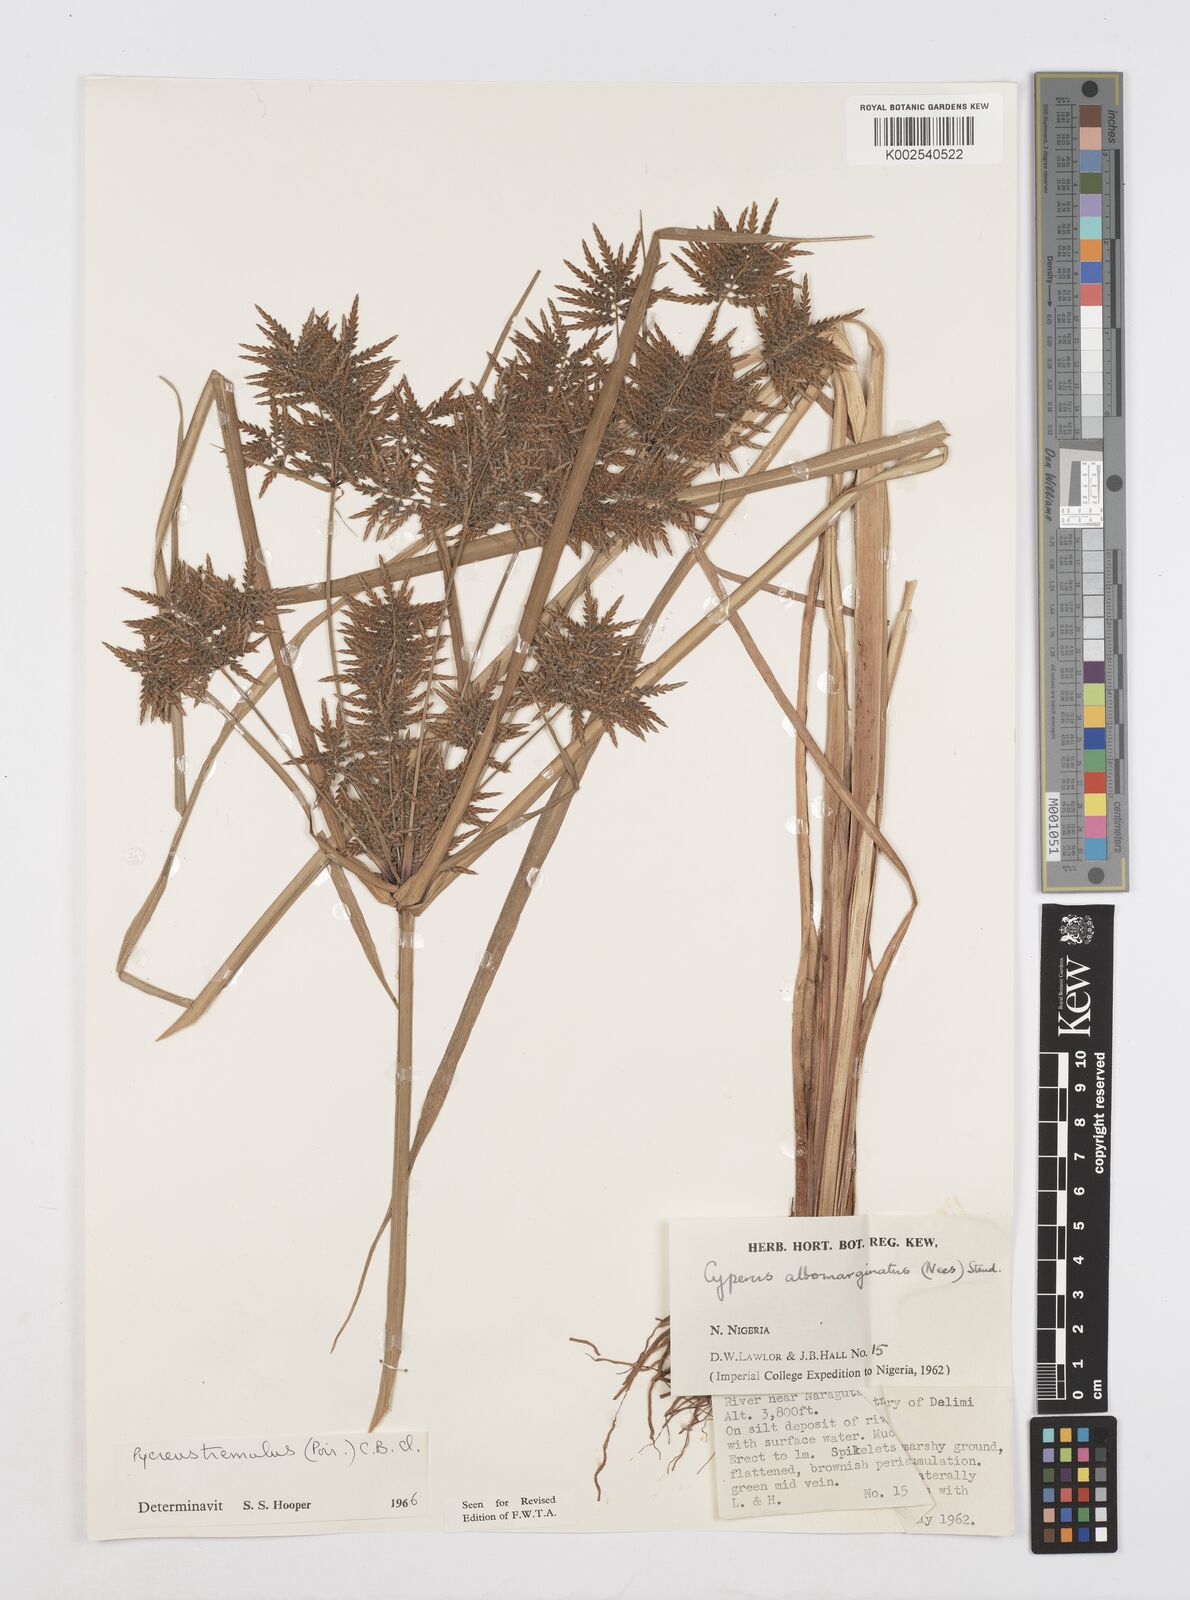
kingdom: Plantae
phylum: Tracheophyta
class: Liliopsida
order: Poales
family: Cyperaceae
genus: Cyperus
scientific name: Cyperus macrostachyos
